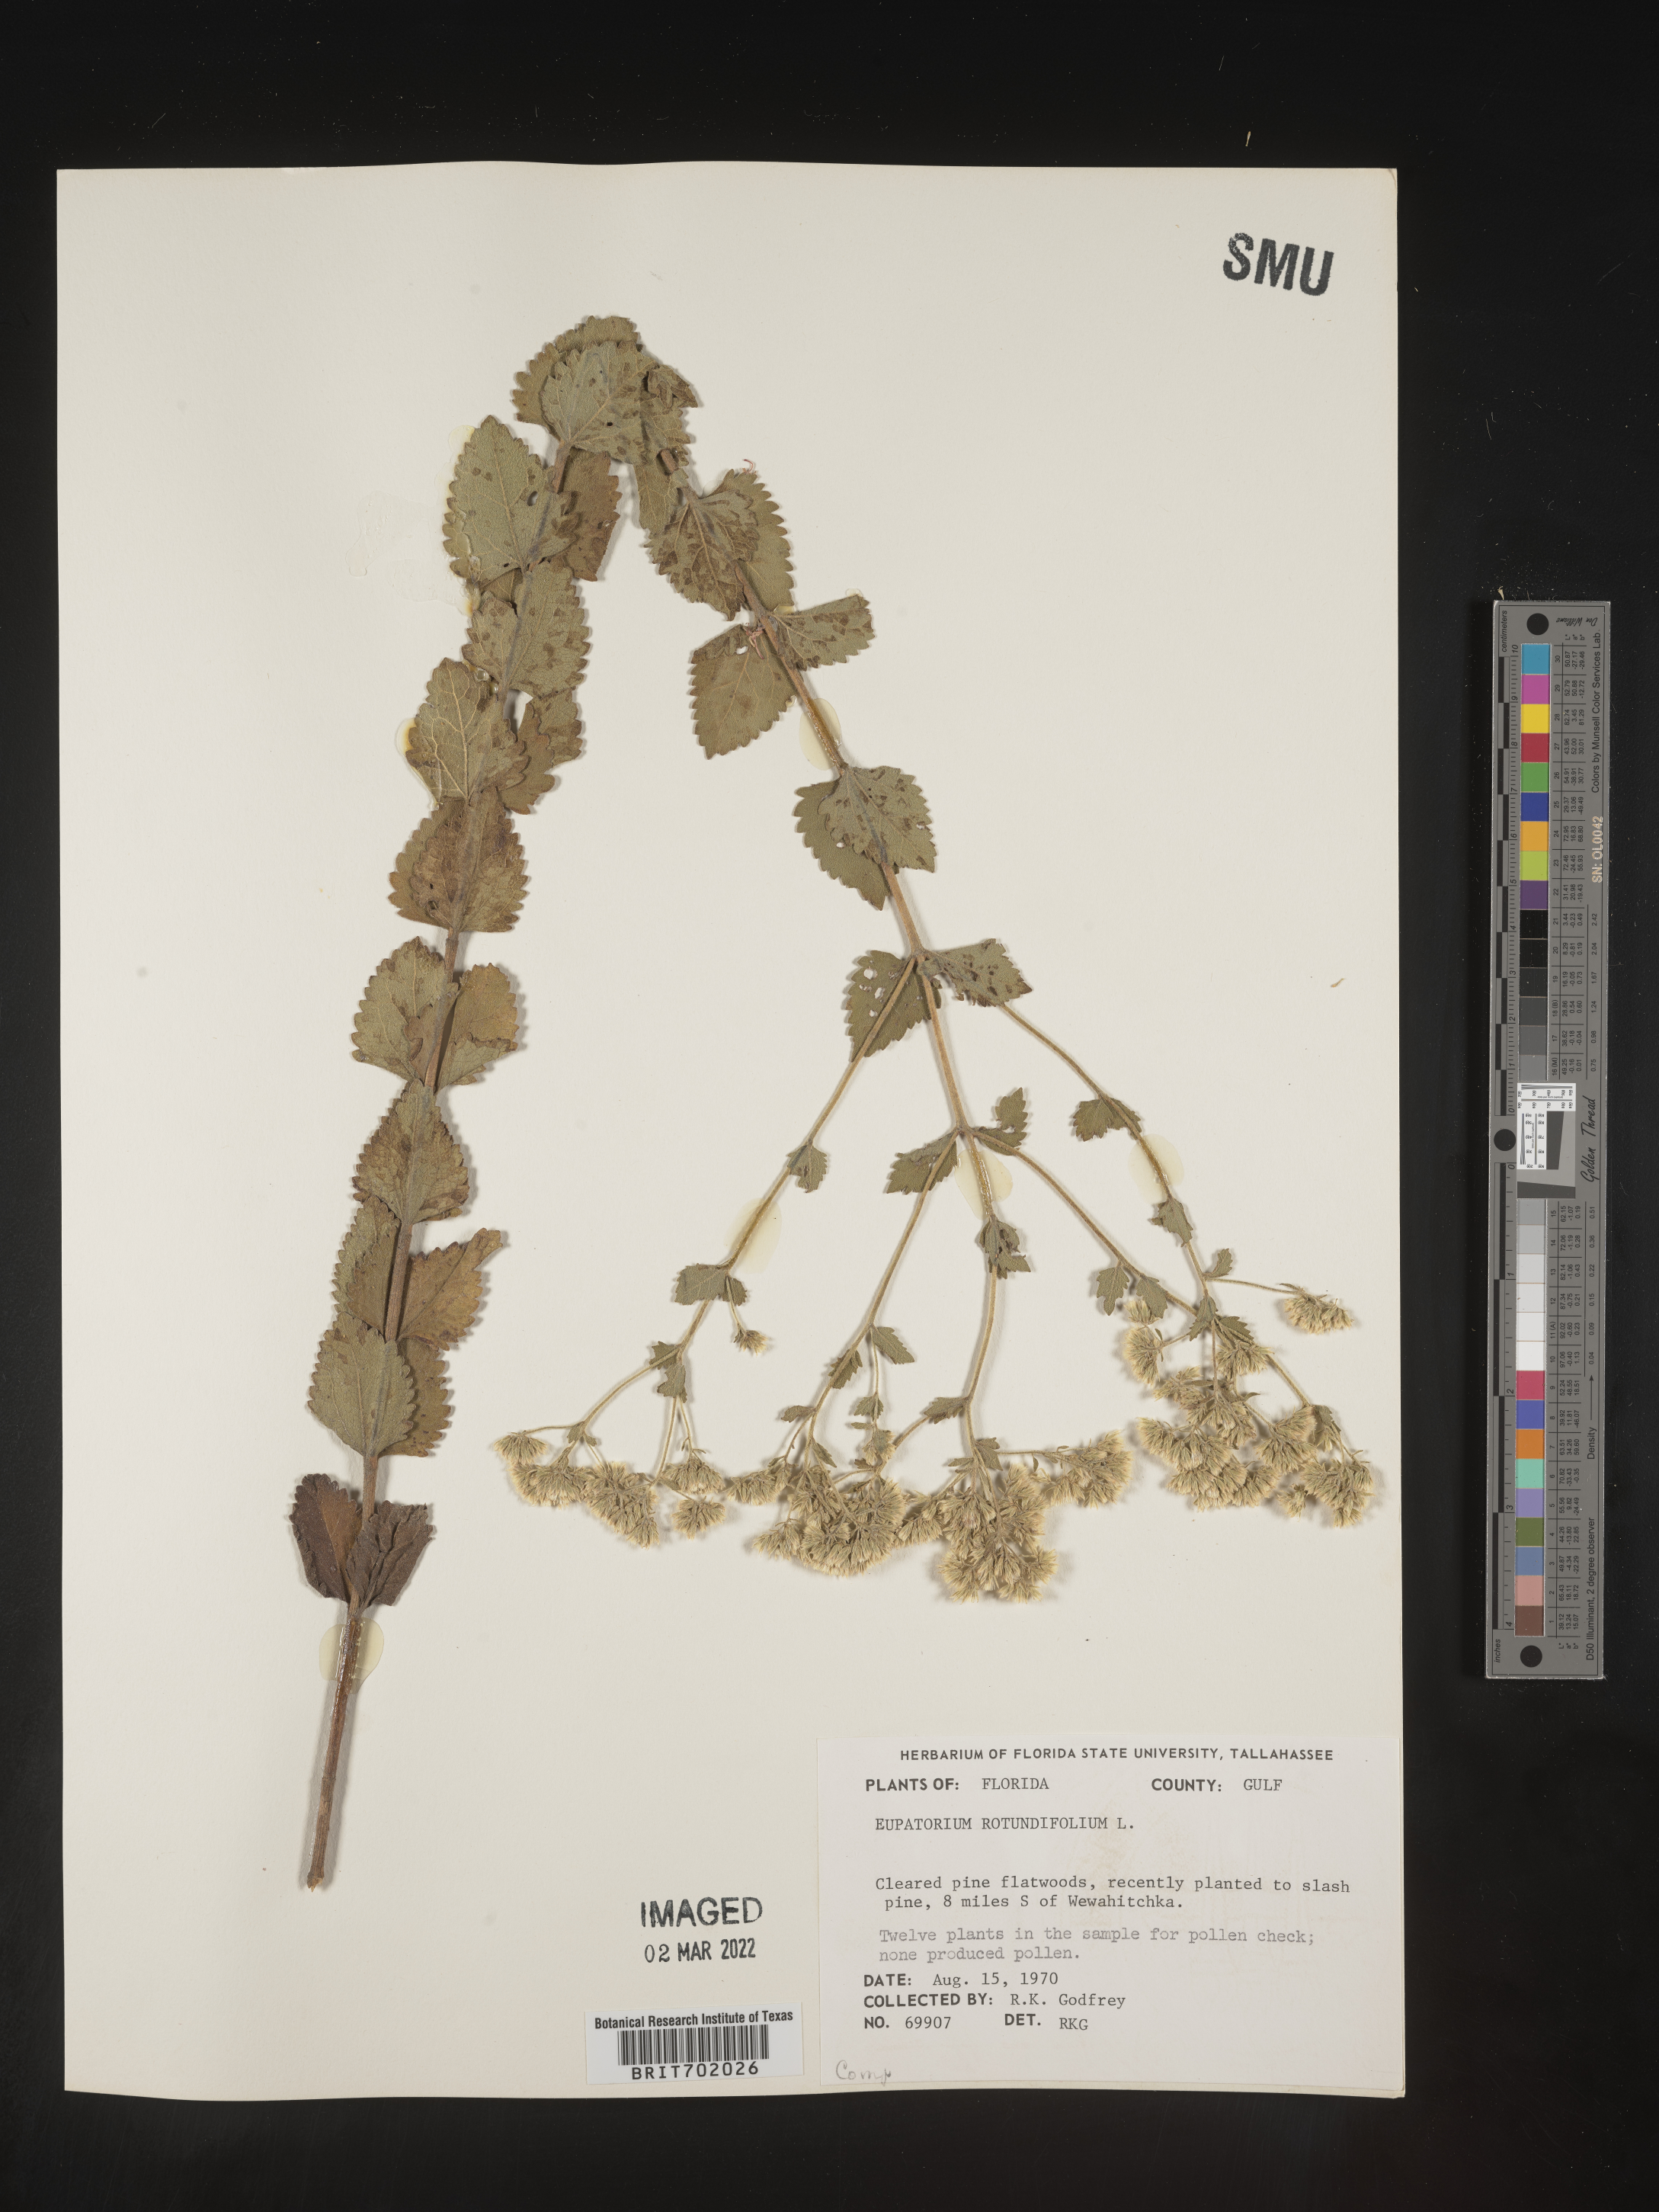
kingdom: Plantae
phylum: Tracheophyta
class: Magnoliopsida
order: Asterales
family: Asteraceae
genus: Eupatorium
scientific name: Eupatorium rotundifolium
